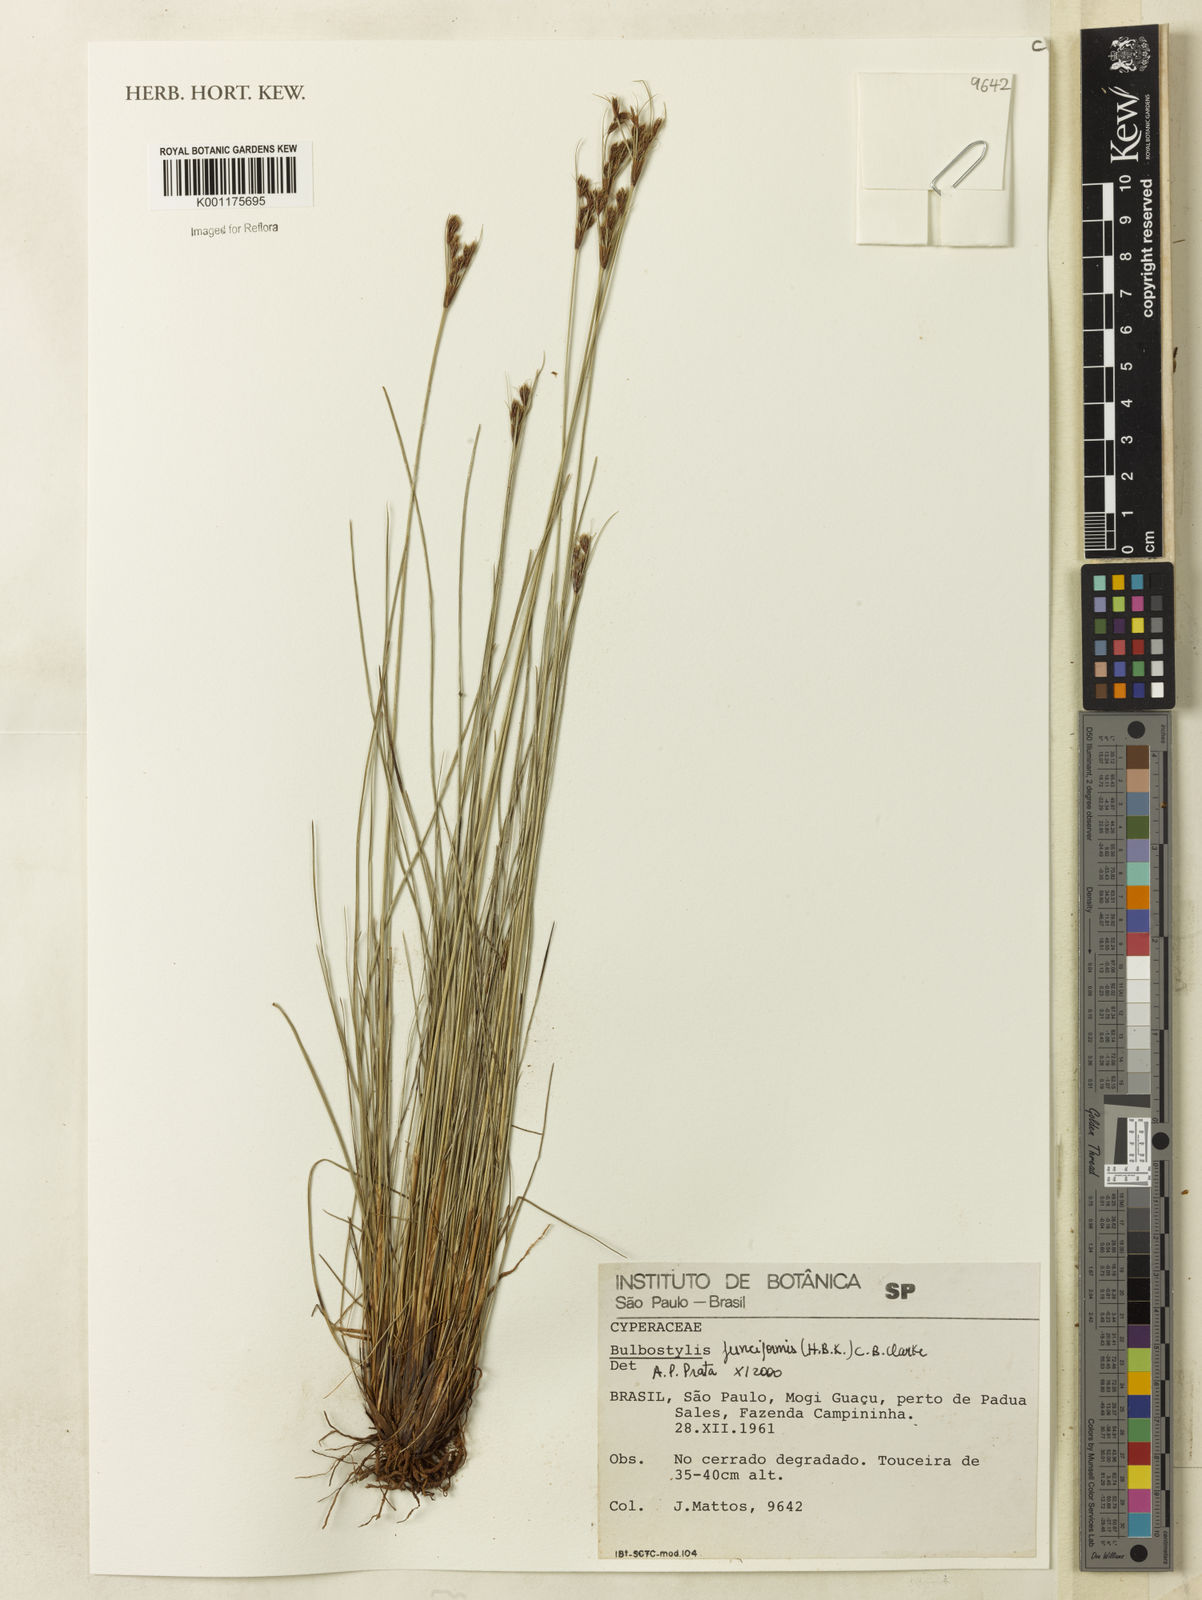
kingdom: Plantae
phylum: Tracheophyta
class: Liliopsida
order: Poales
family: Cyperaceae
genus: Bulbostylis
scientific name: Bulbostylis junciformis
